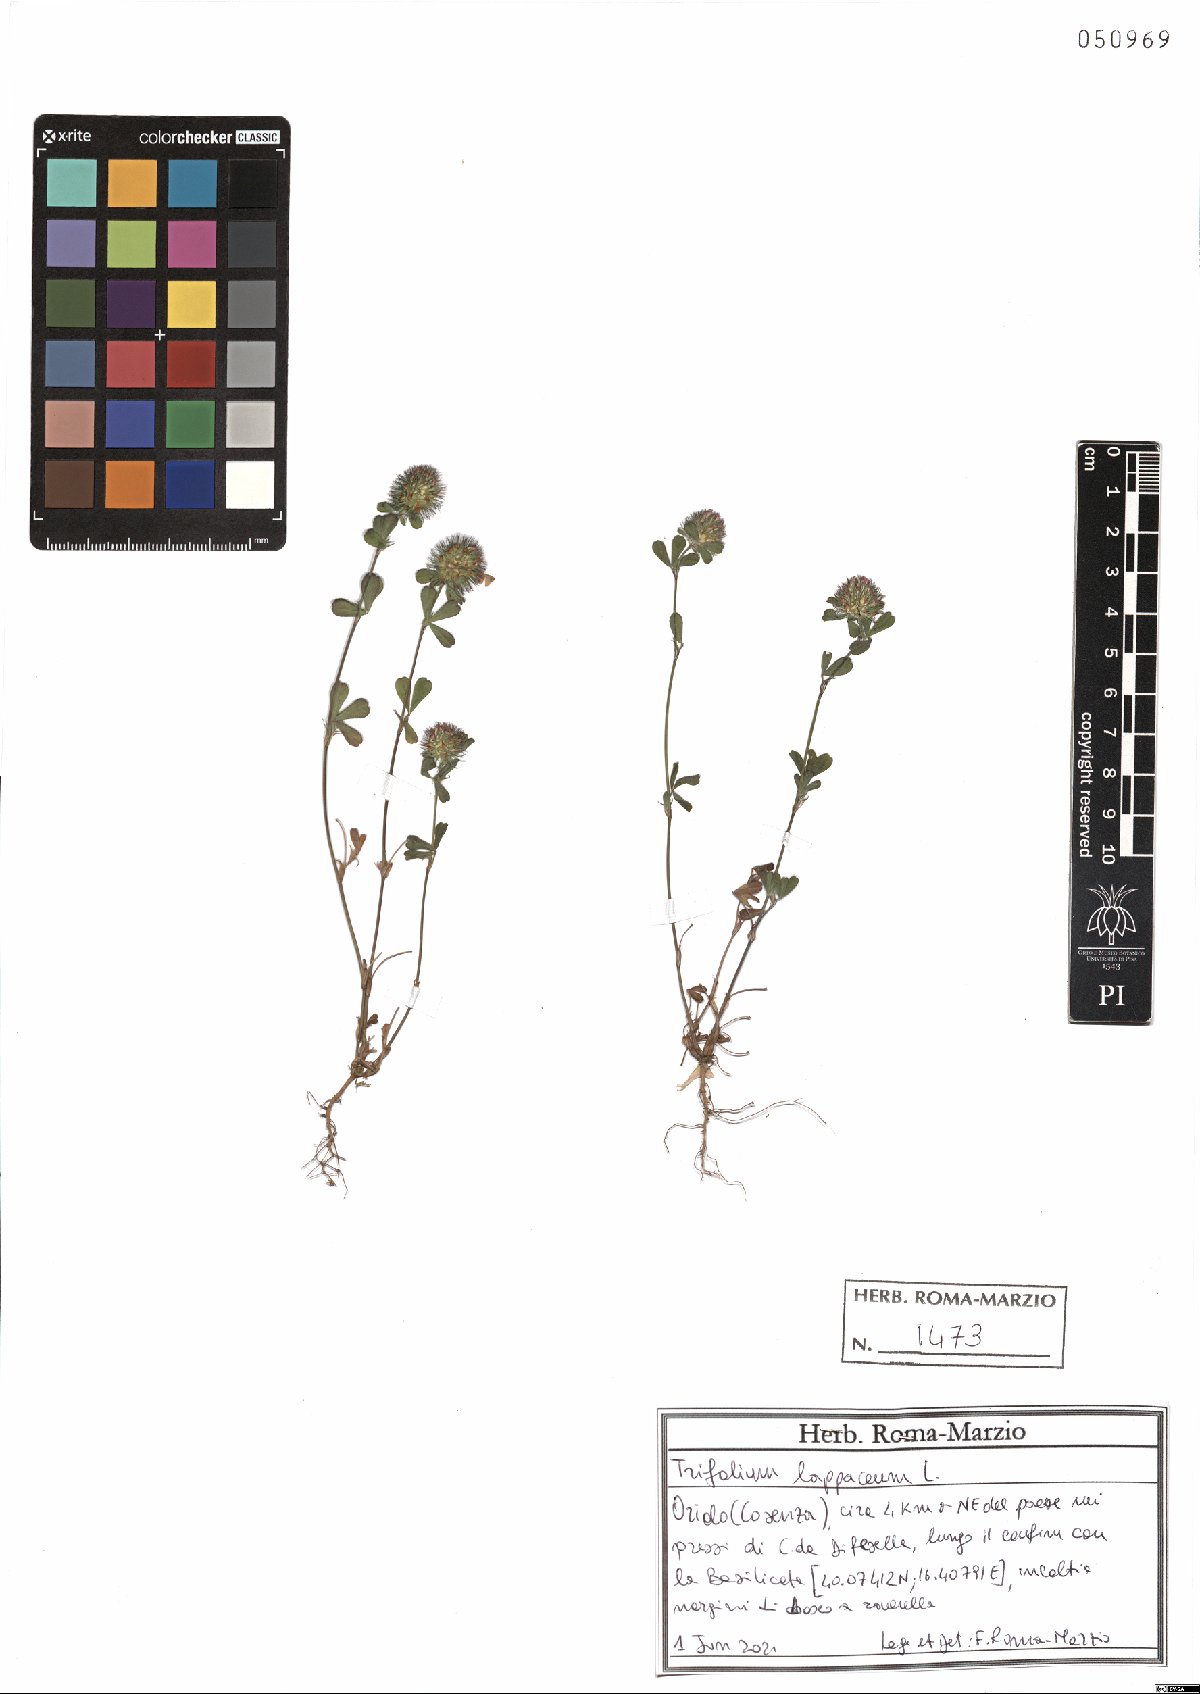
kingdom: Plantae
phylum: Tracheophyta
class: Magnoliopsida
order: Fabales
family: Fabaceae
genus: Trifolium
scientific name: Trifolium lappaceum
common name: Bur clover
